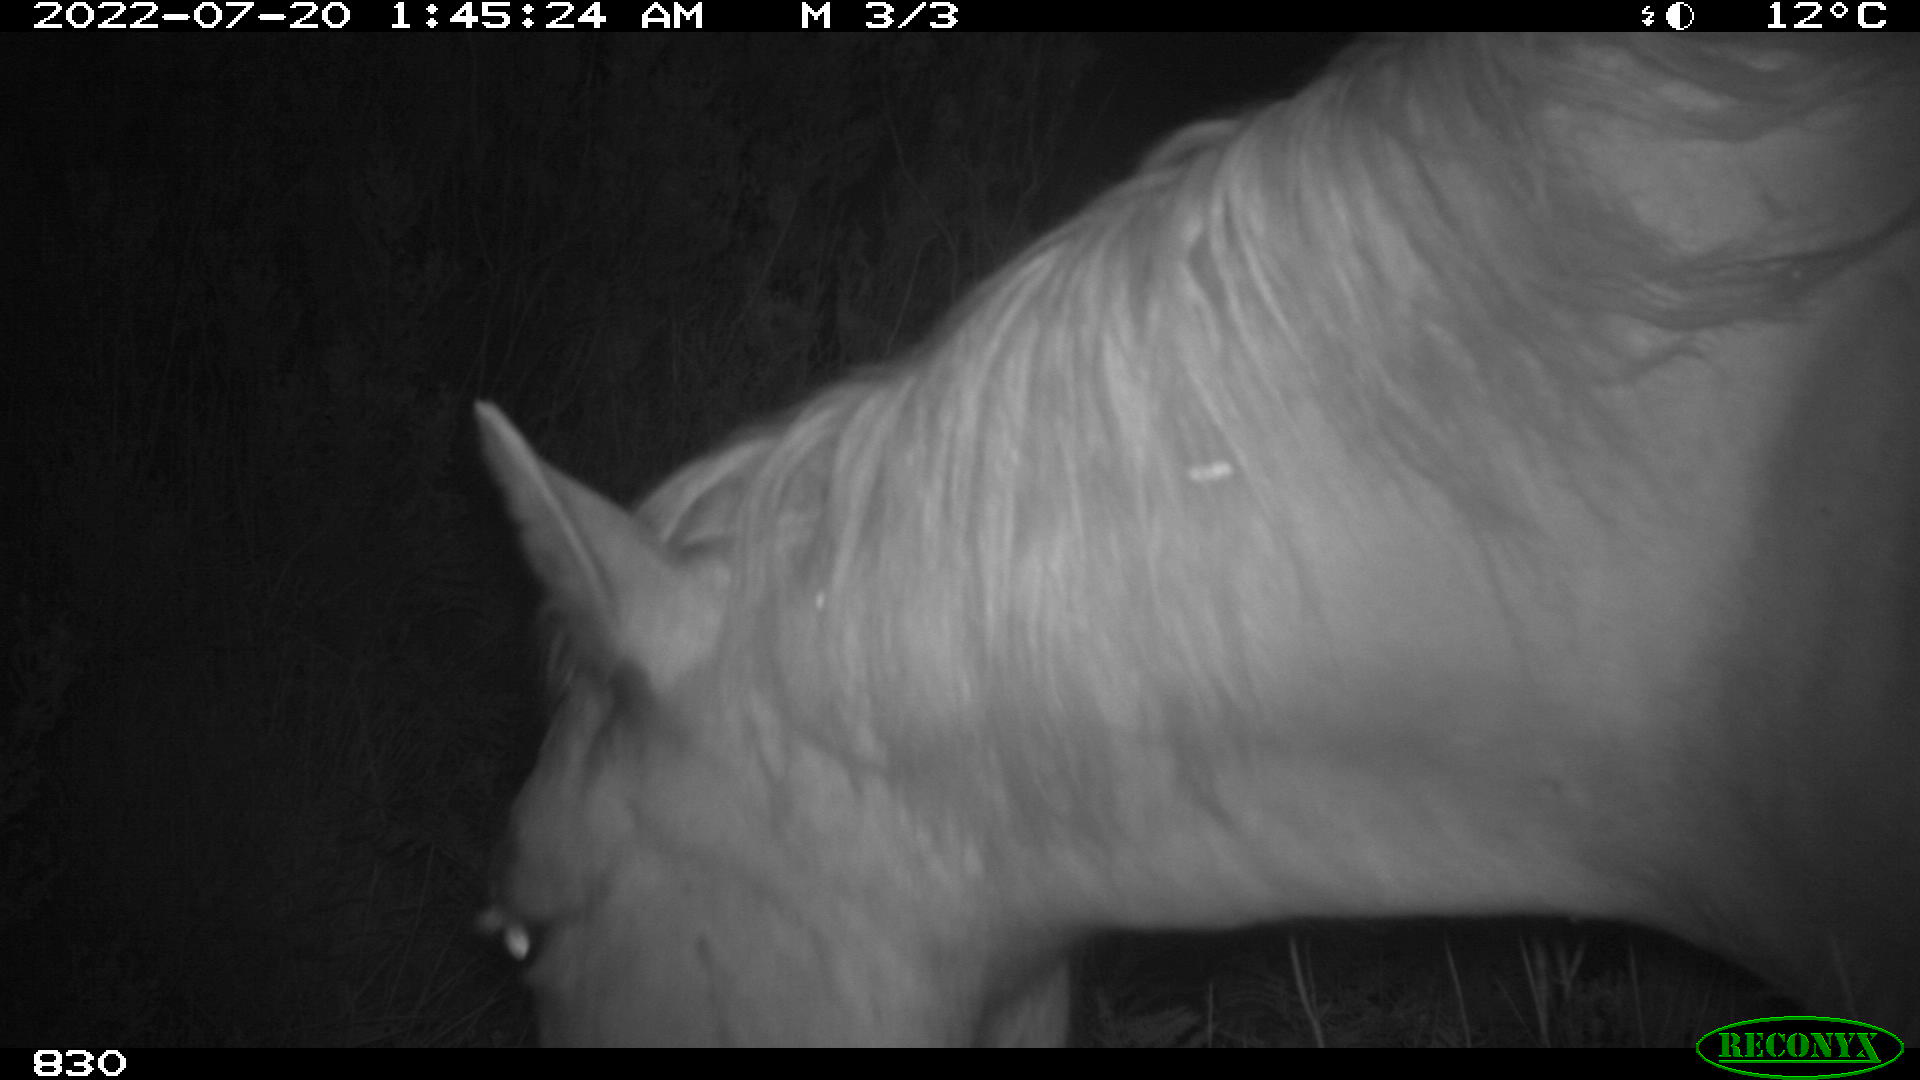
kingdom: Animalia
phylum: Chordata
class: Mammalia
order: Perissodactyla
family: Equidae
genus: Equus
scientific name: Equus caballus
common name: Horse
